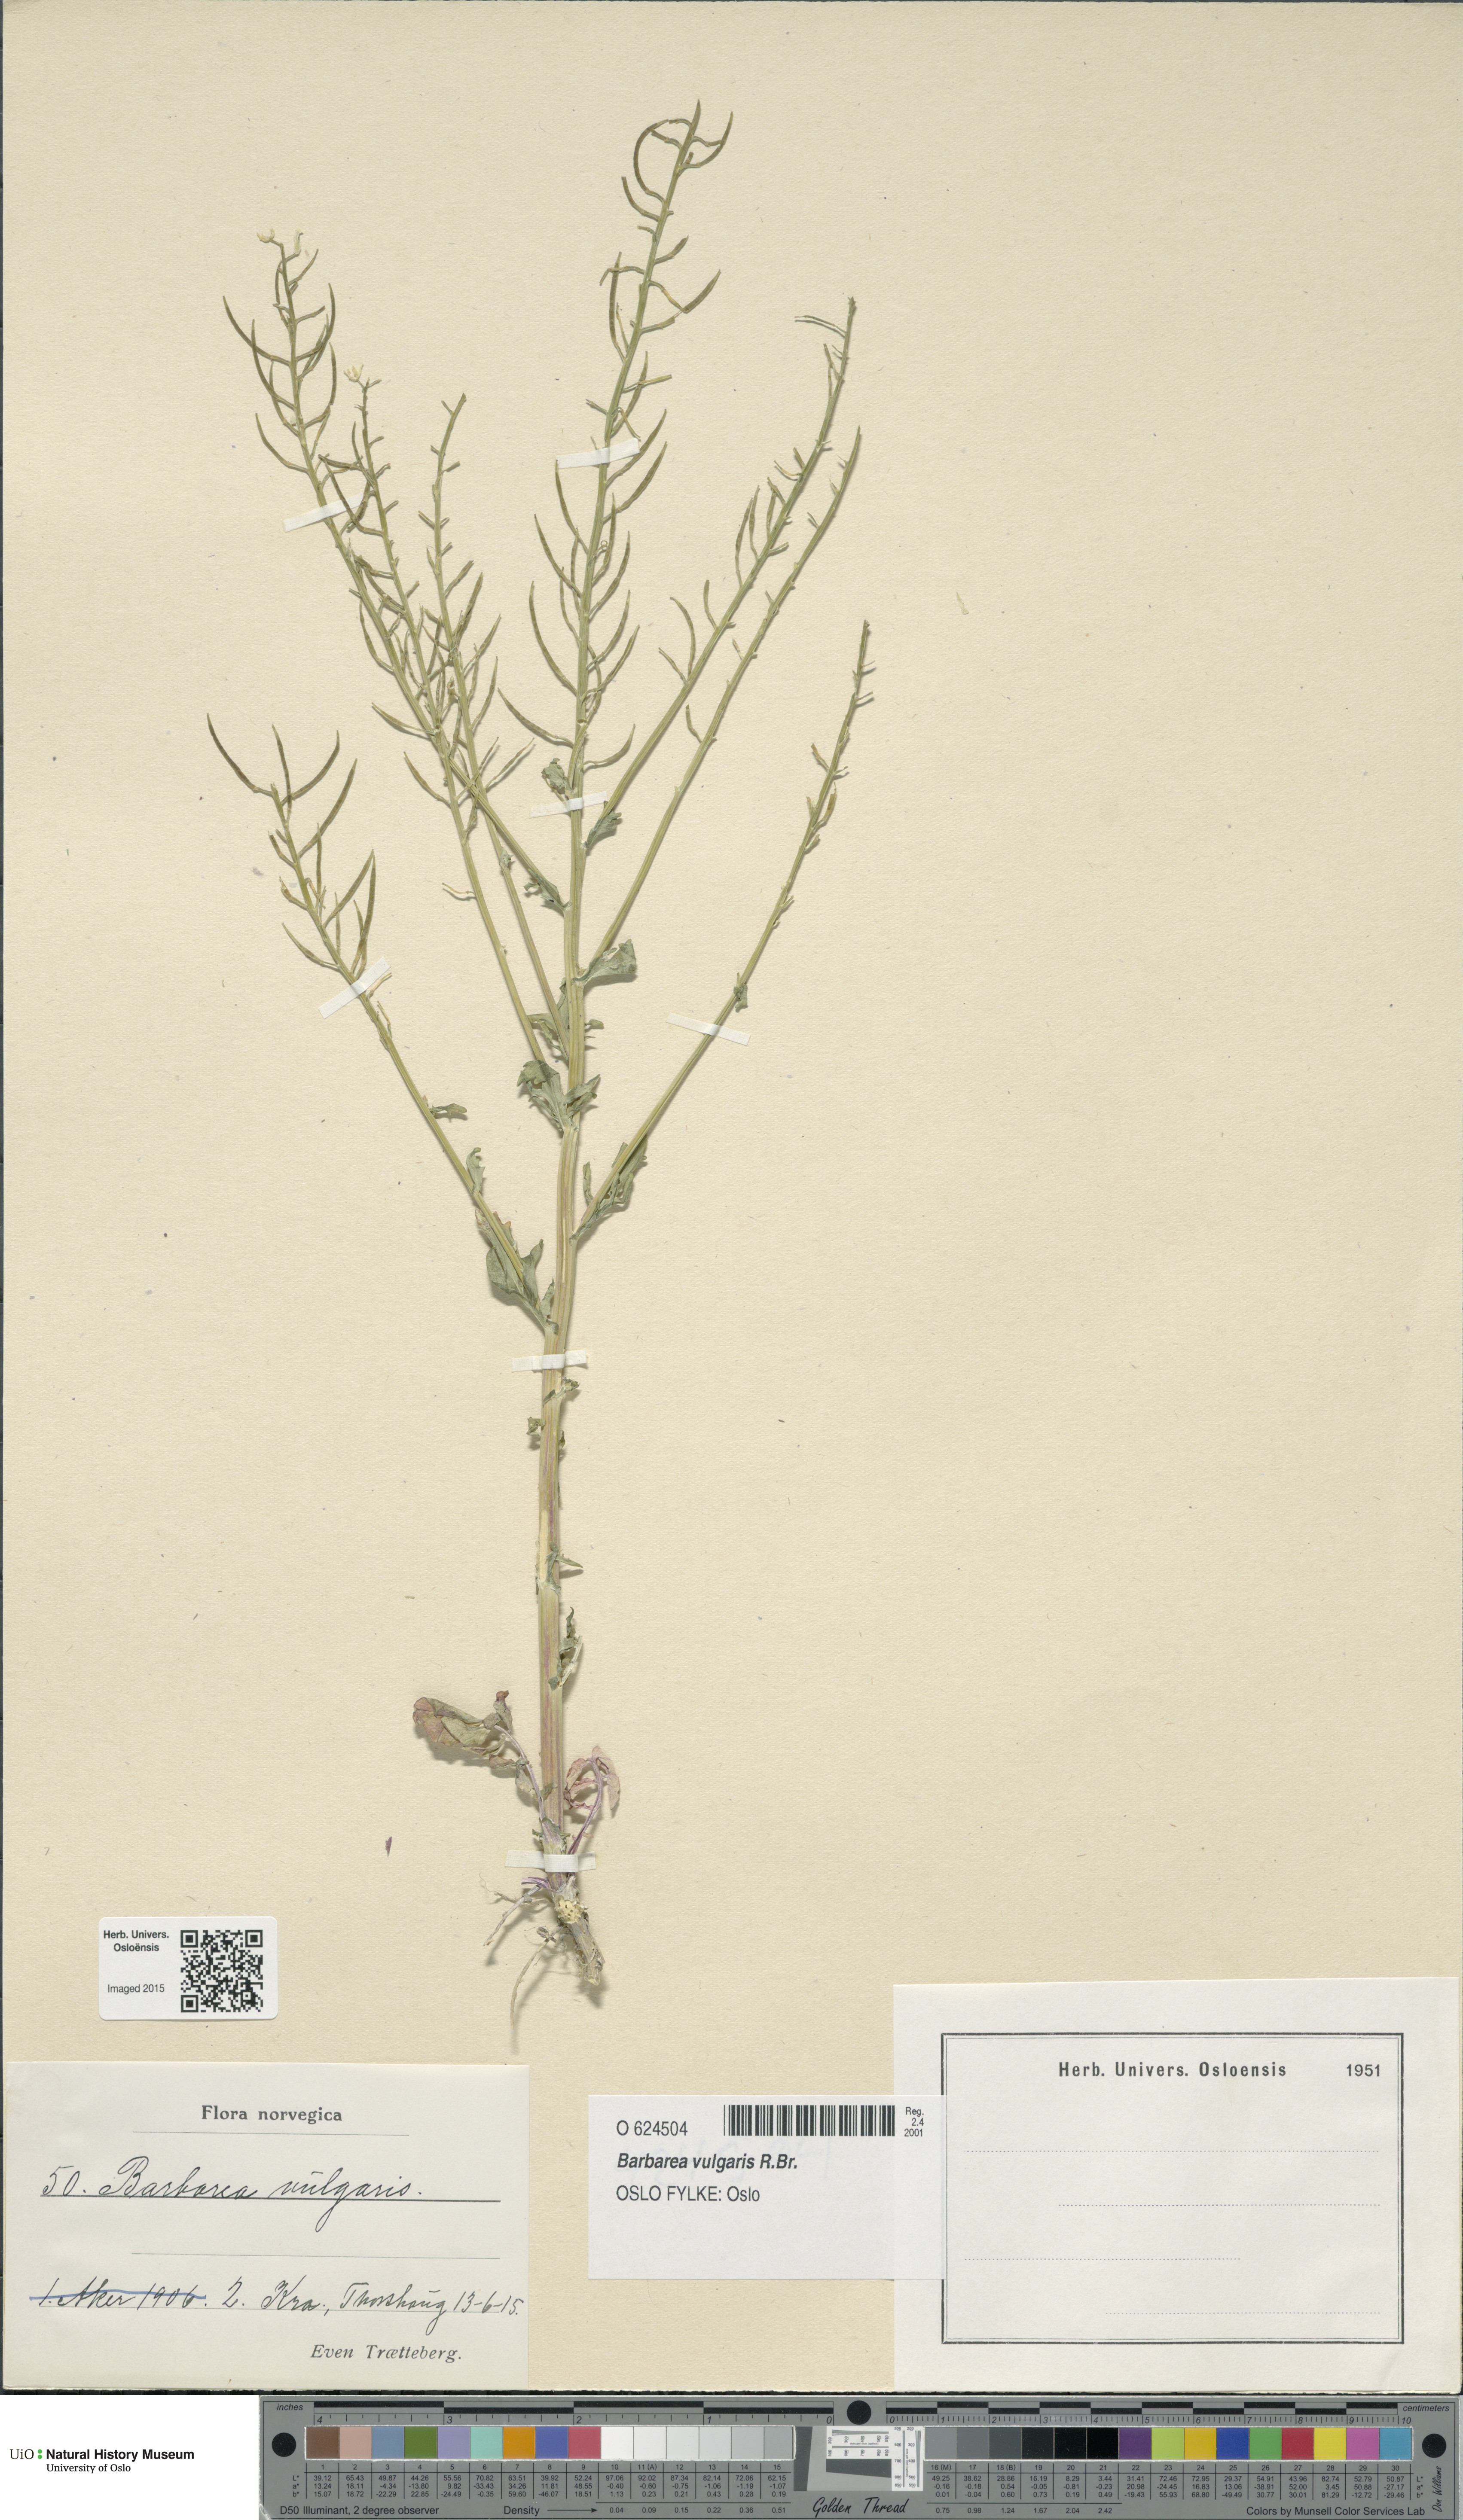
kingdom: Plantae
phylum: Tracheophyta
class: Magnoliopsida
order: Brassicales
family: Brassicaceae
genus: Barbarea
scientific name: Barbarea vulgaris
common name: Cressy-greens
